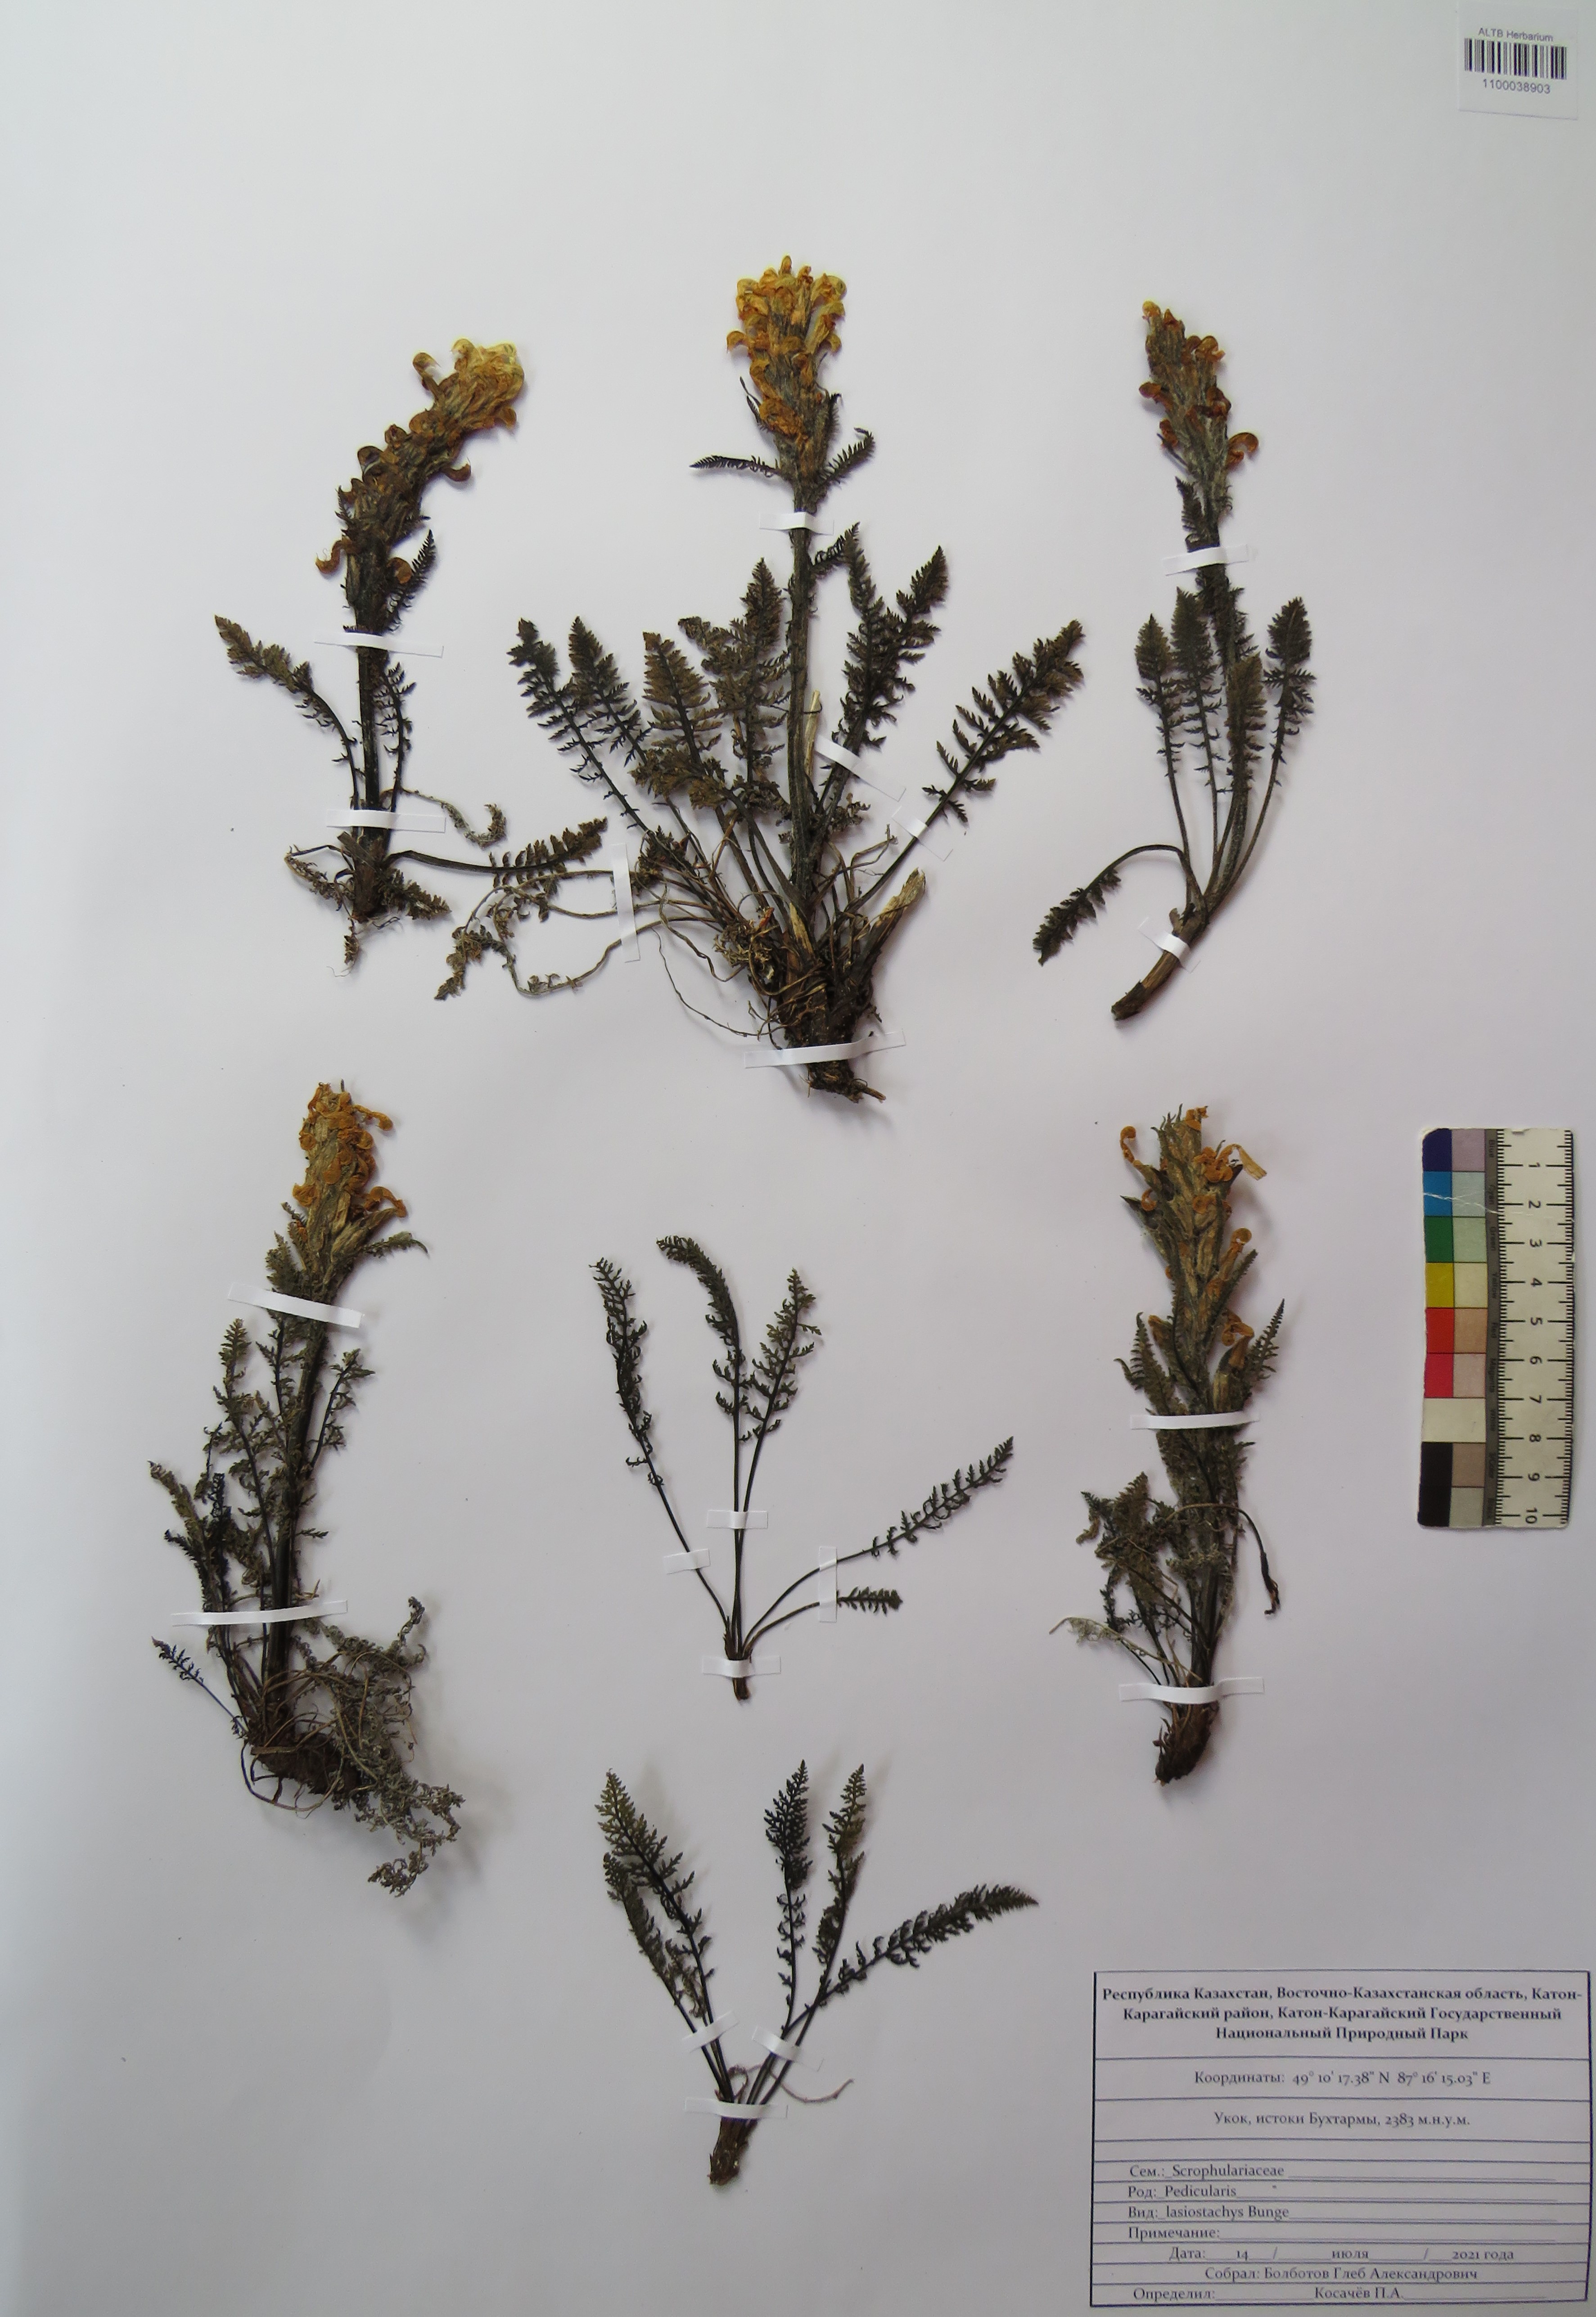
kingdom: Plantae
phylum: Tracheophyta
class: Magnoliopsida
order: Lamiales
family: Orobanchaceae
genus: Pedicularis
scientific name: Pedicularis lasiostachys
